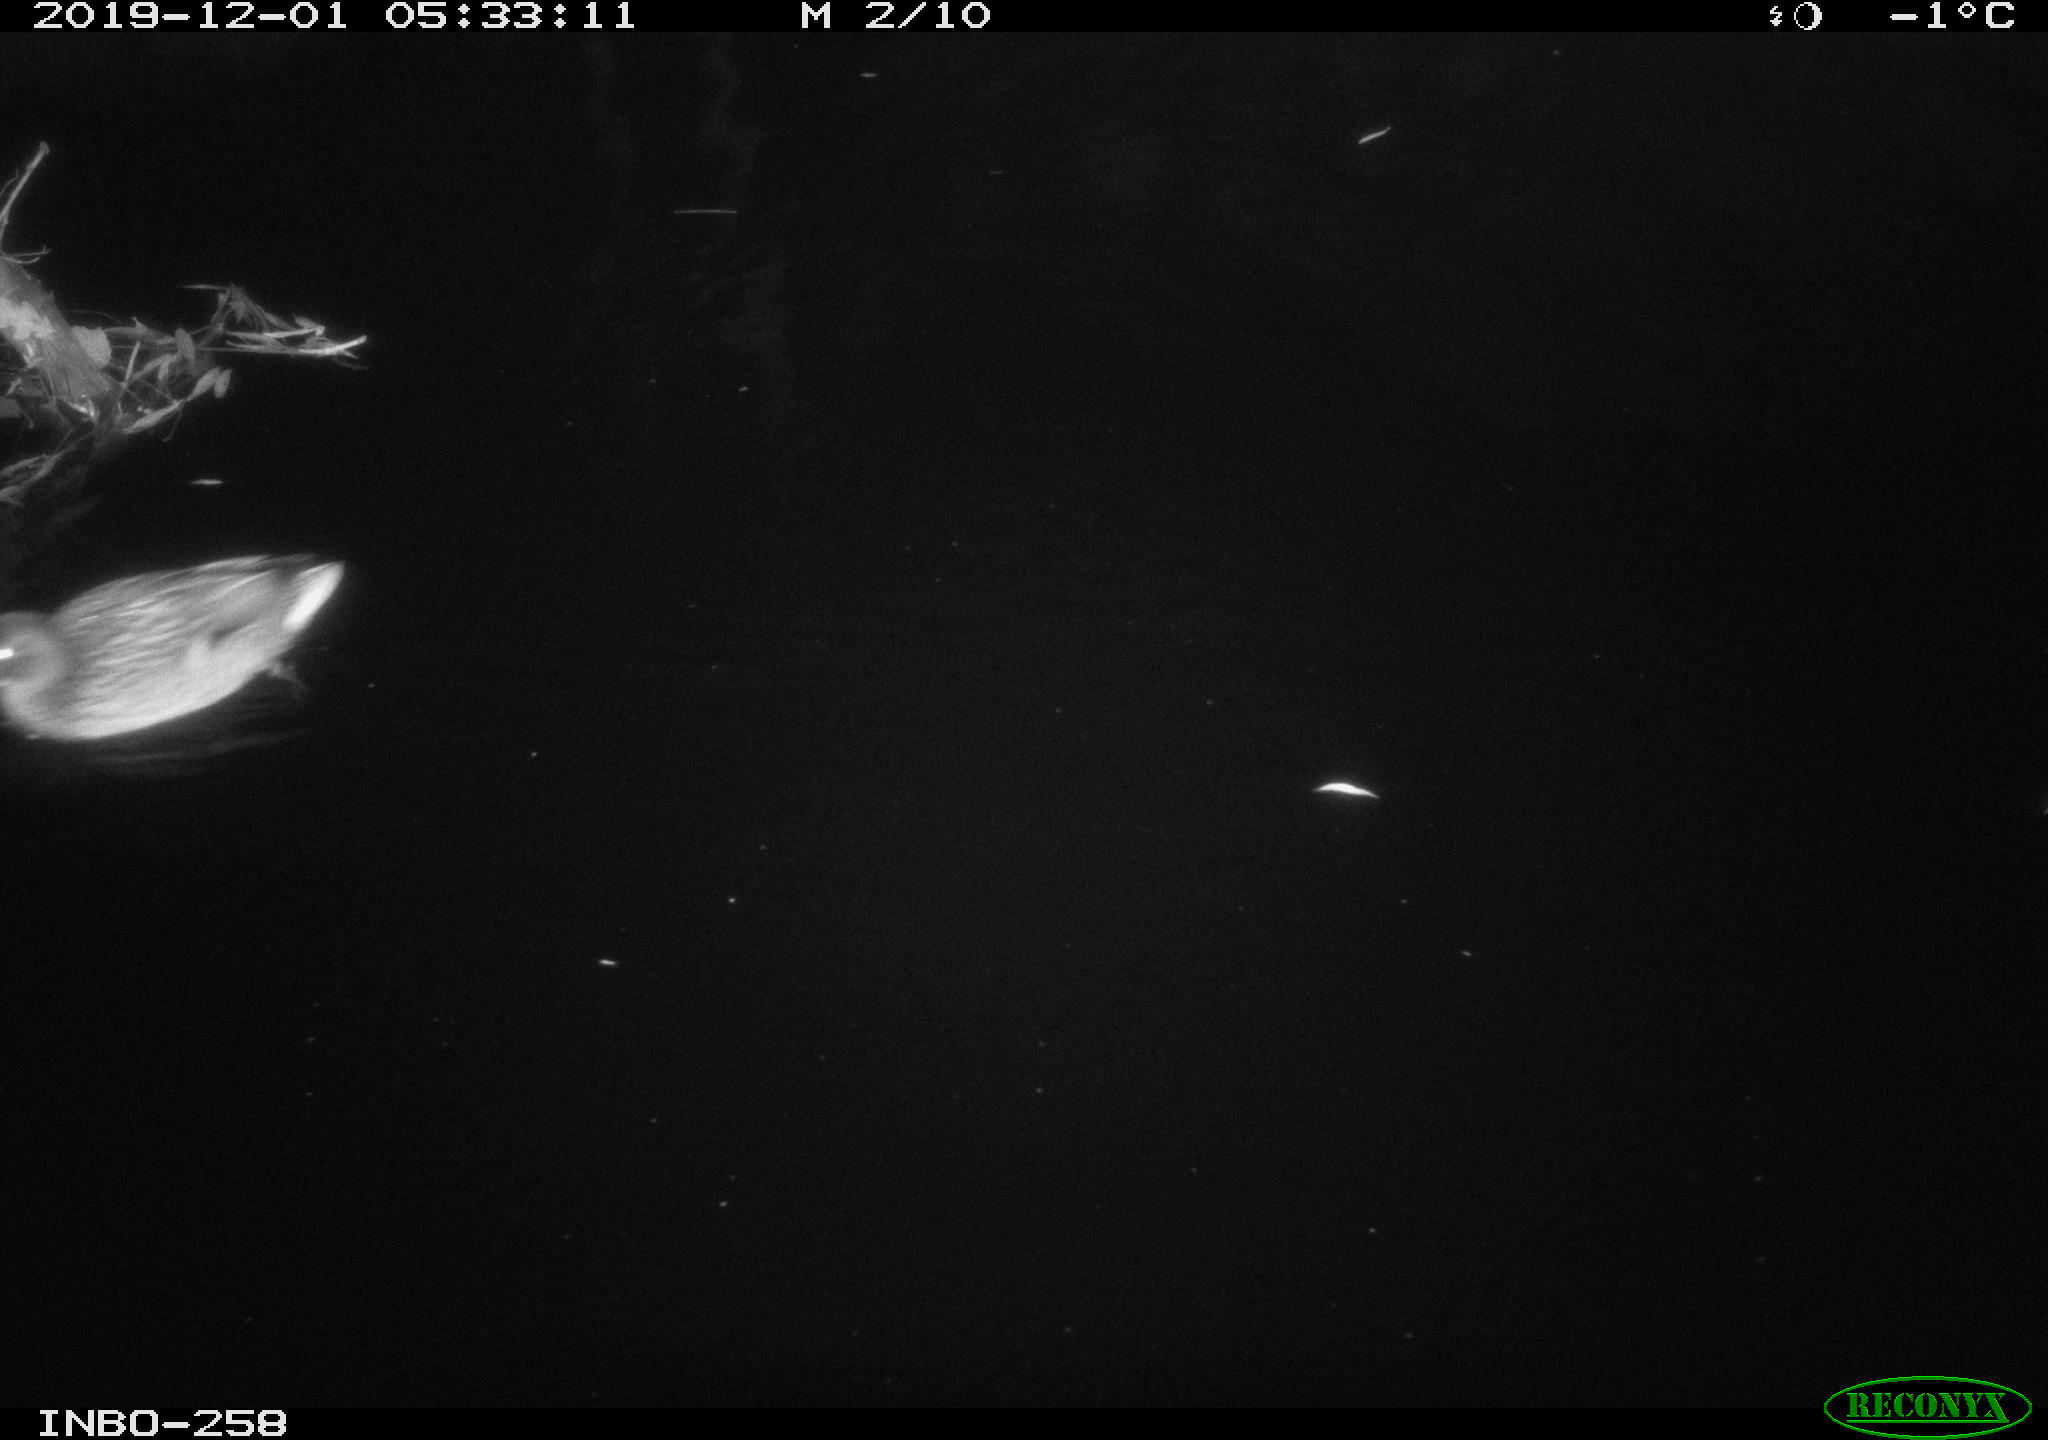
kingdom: Animalia
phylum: Chordata
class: Aves
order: Anseriformes
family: Anatidae
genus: Anas
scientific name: Anas platyrhynchos
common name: Mallard
